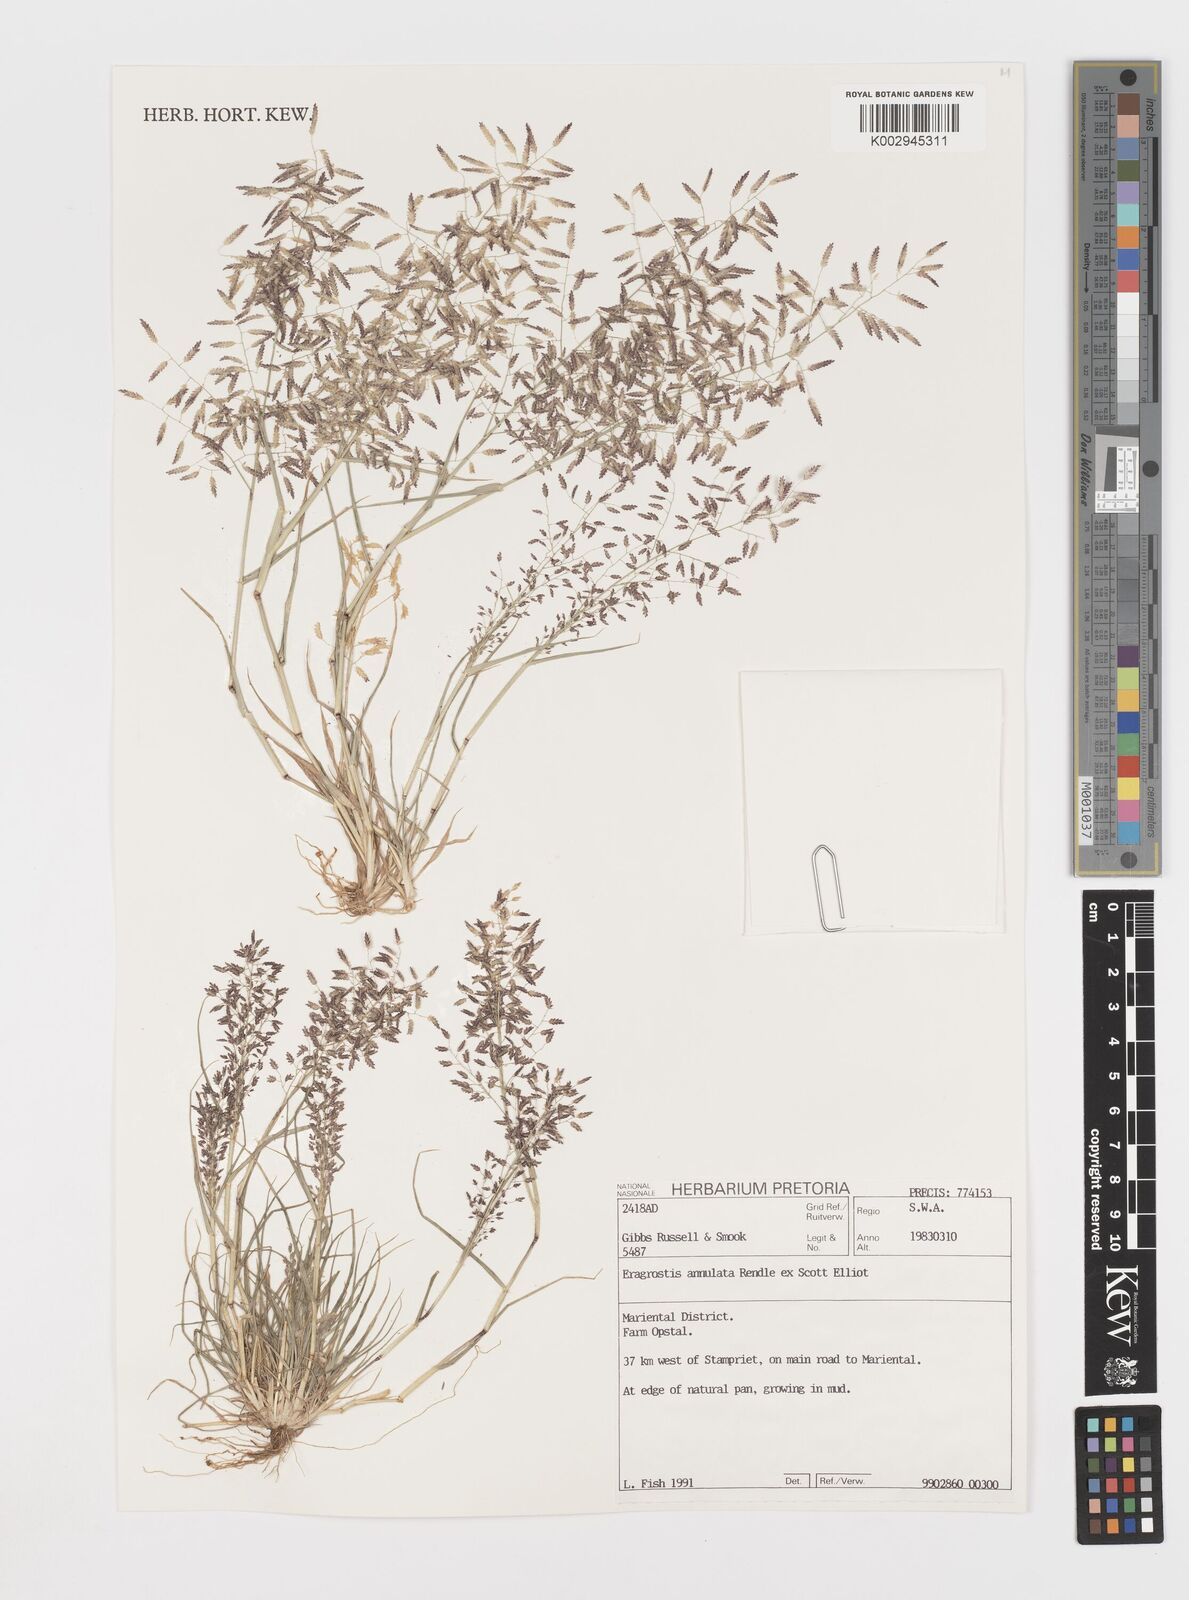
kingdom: Plantae
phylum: Tracheophyta
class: Liliopsida
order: Poales
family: Poaceae
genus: Eragrostis
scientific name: Eragrostis annulata
